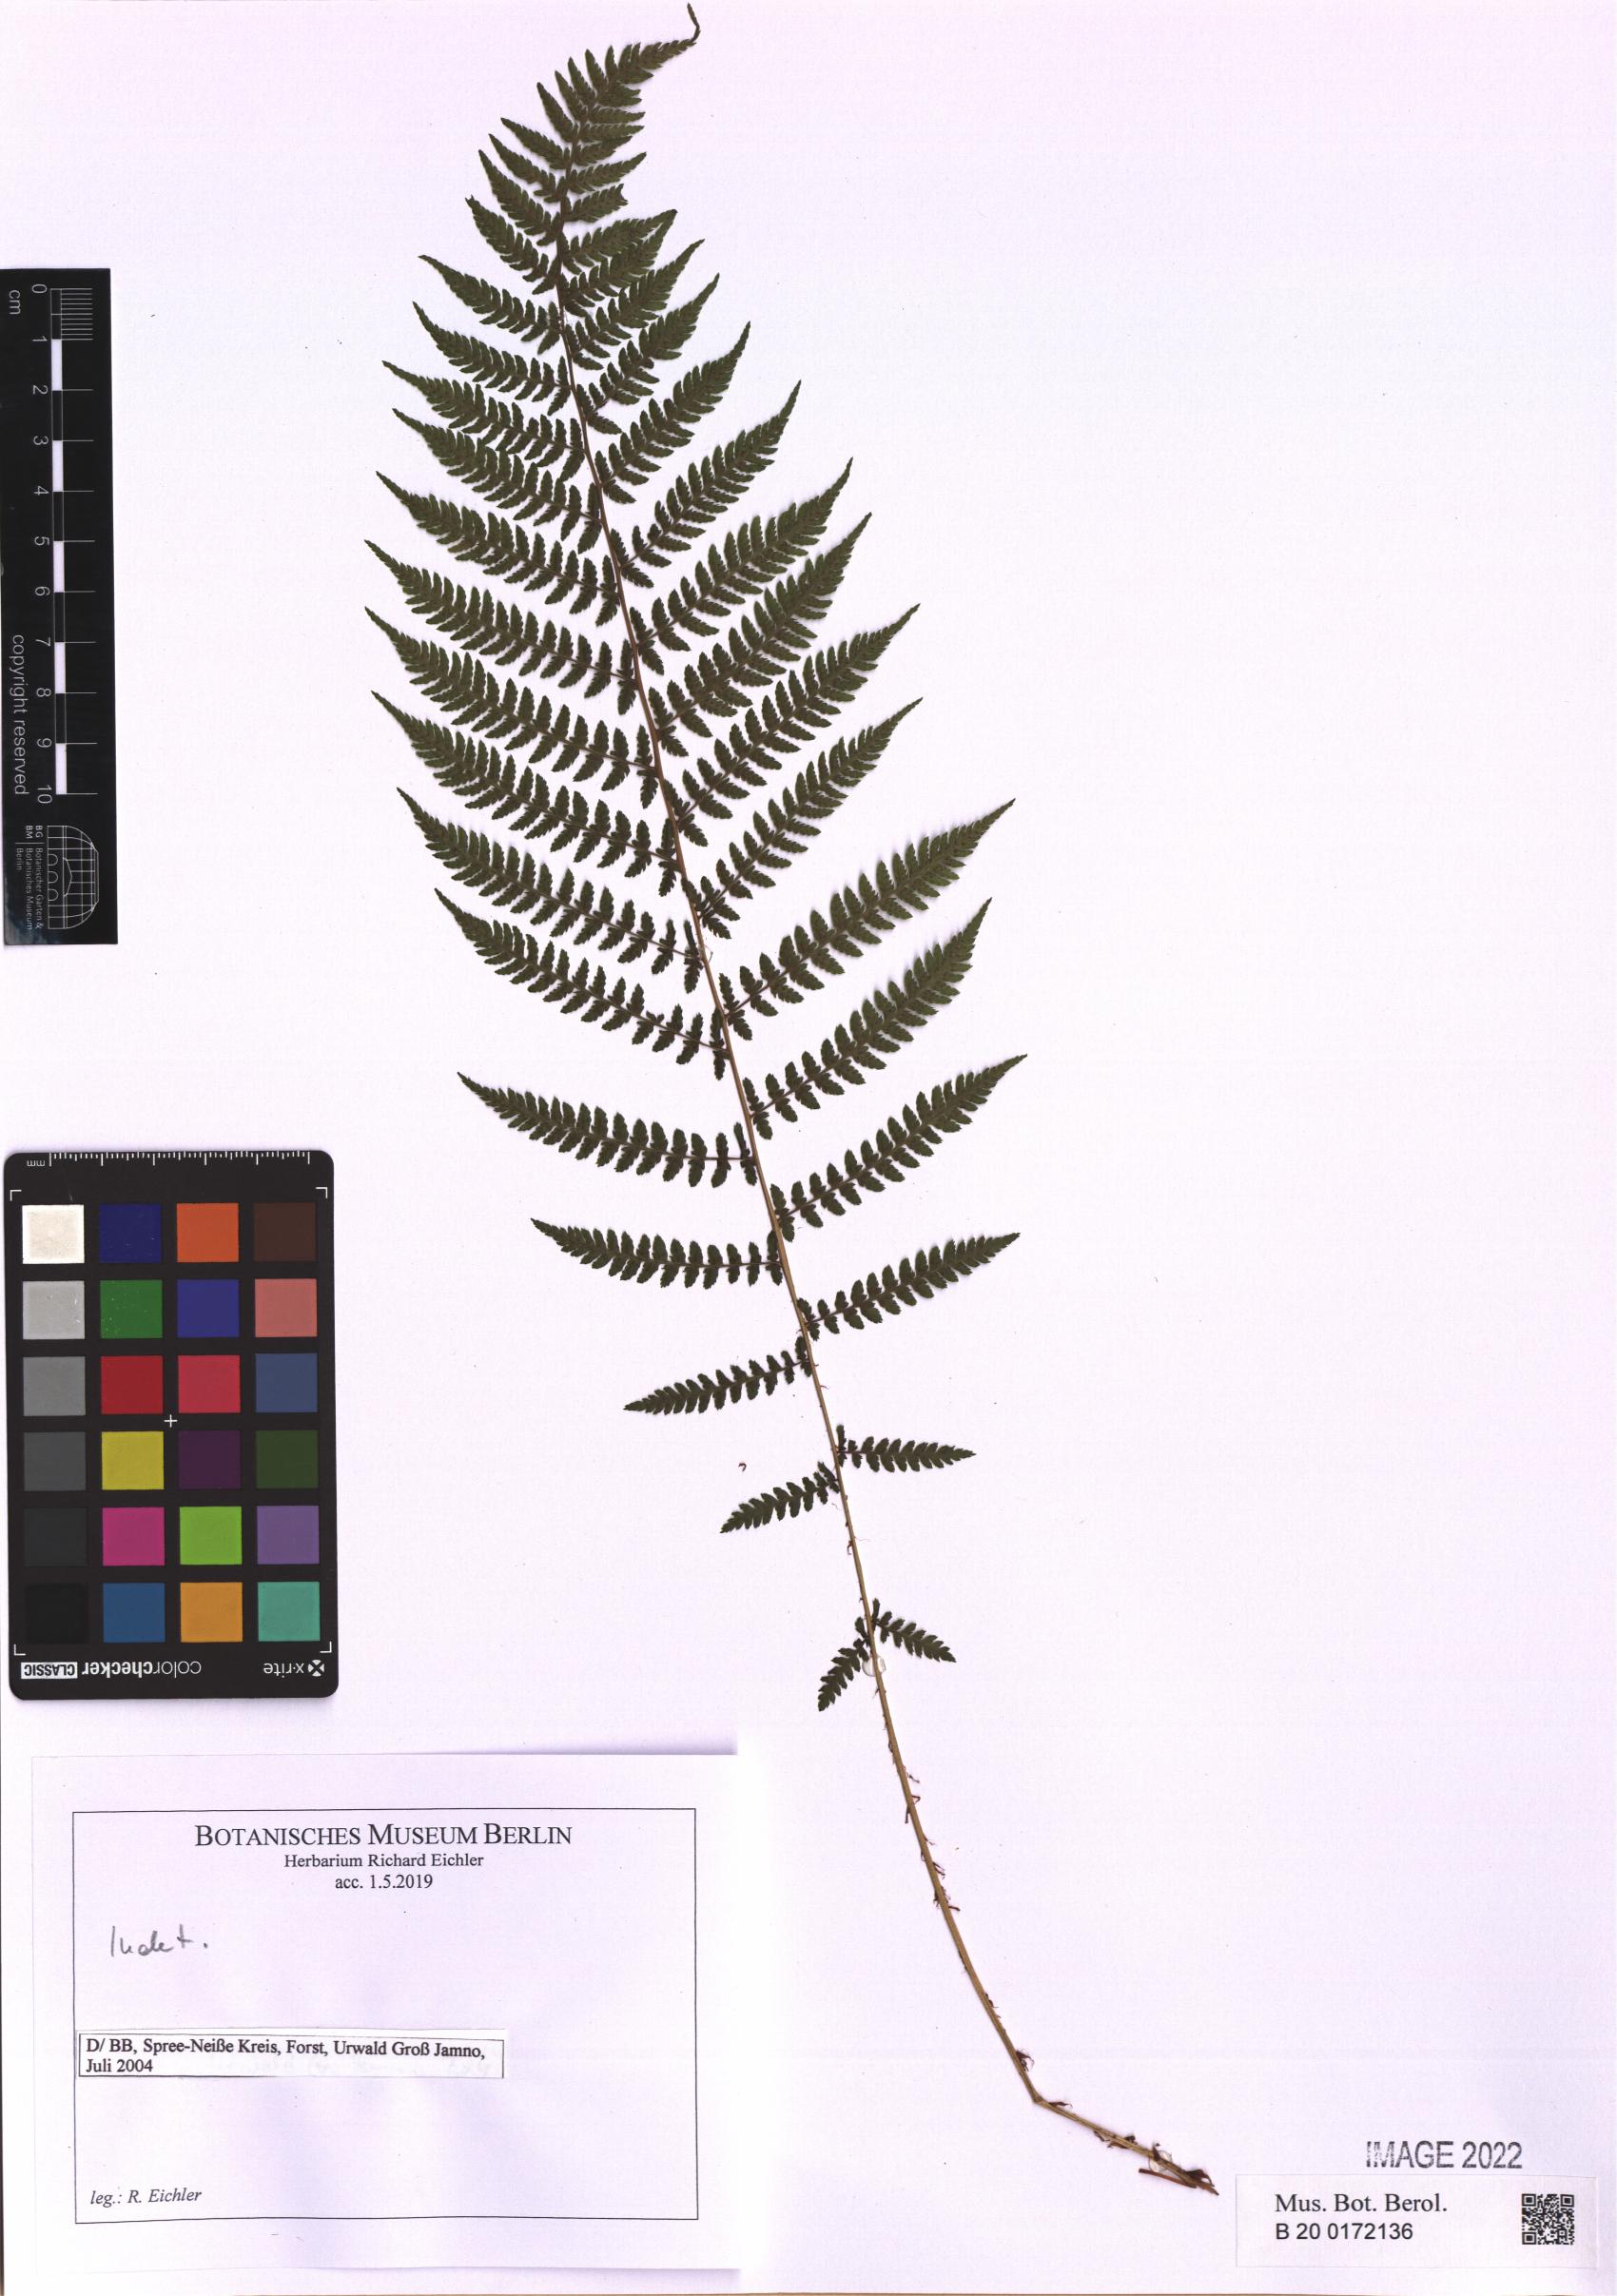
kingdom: Plantae
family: Pteridophyta
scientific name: Pteridophyta
